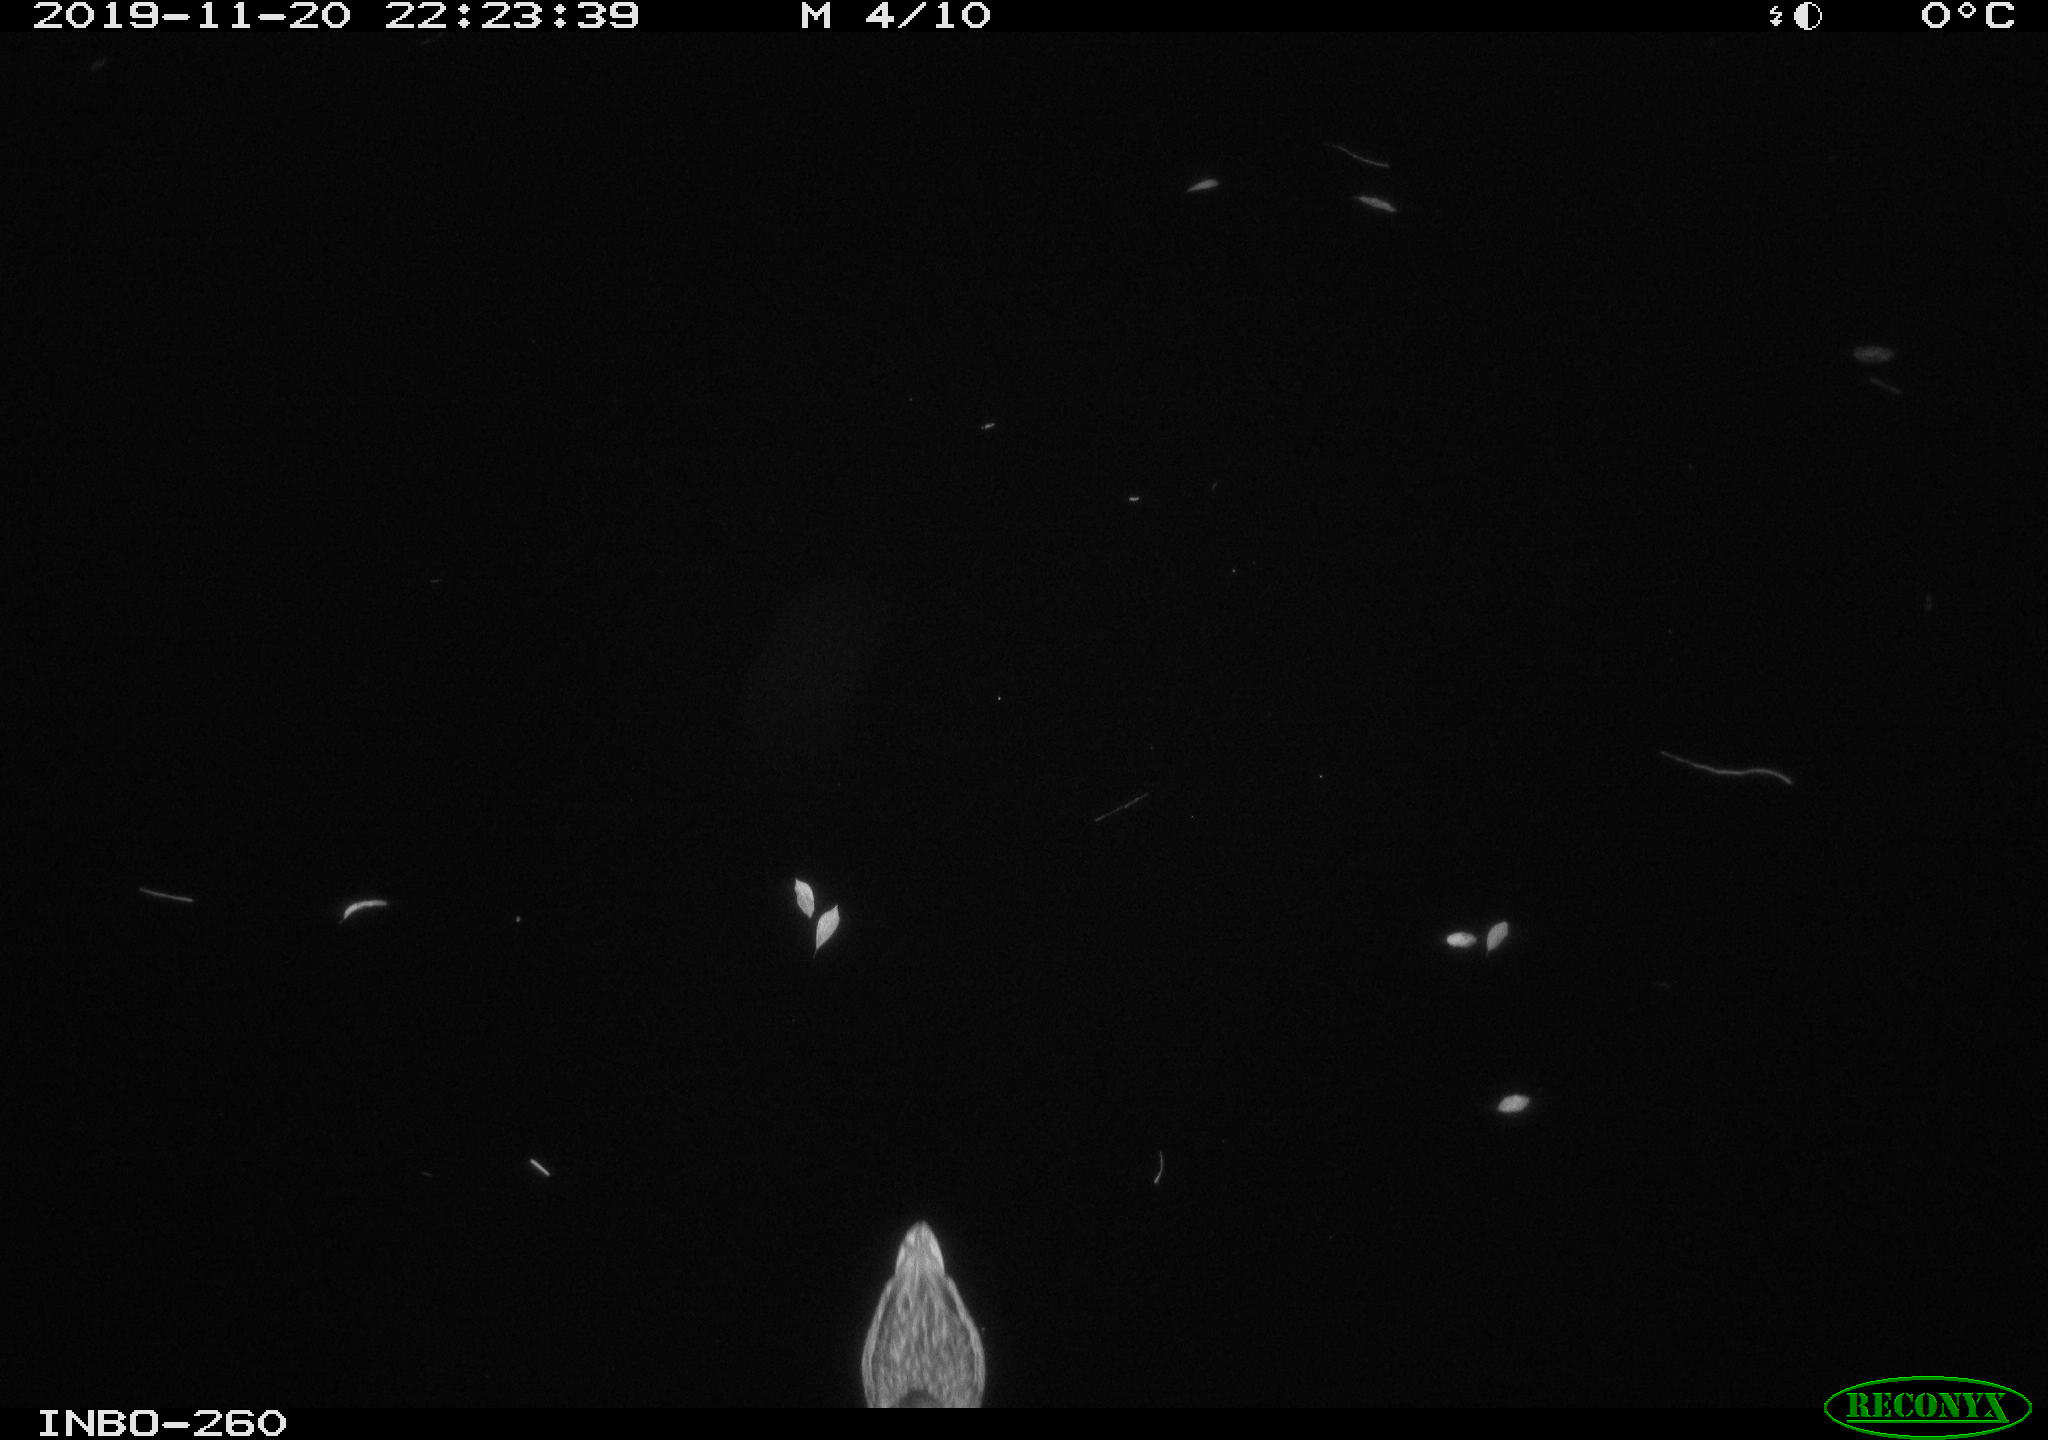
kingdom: Animalia
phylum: Chordata
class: Aves
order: Anseriformes
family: Anatidae
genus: Anas
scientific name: Anas platyrhynchos
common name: Mallard
